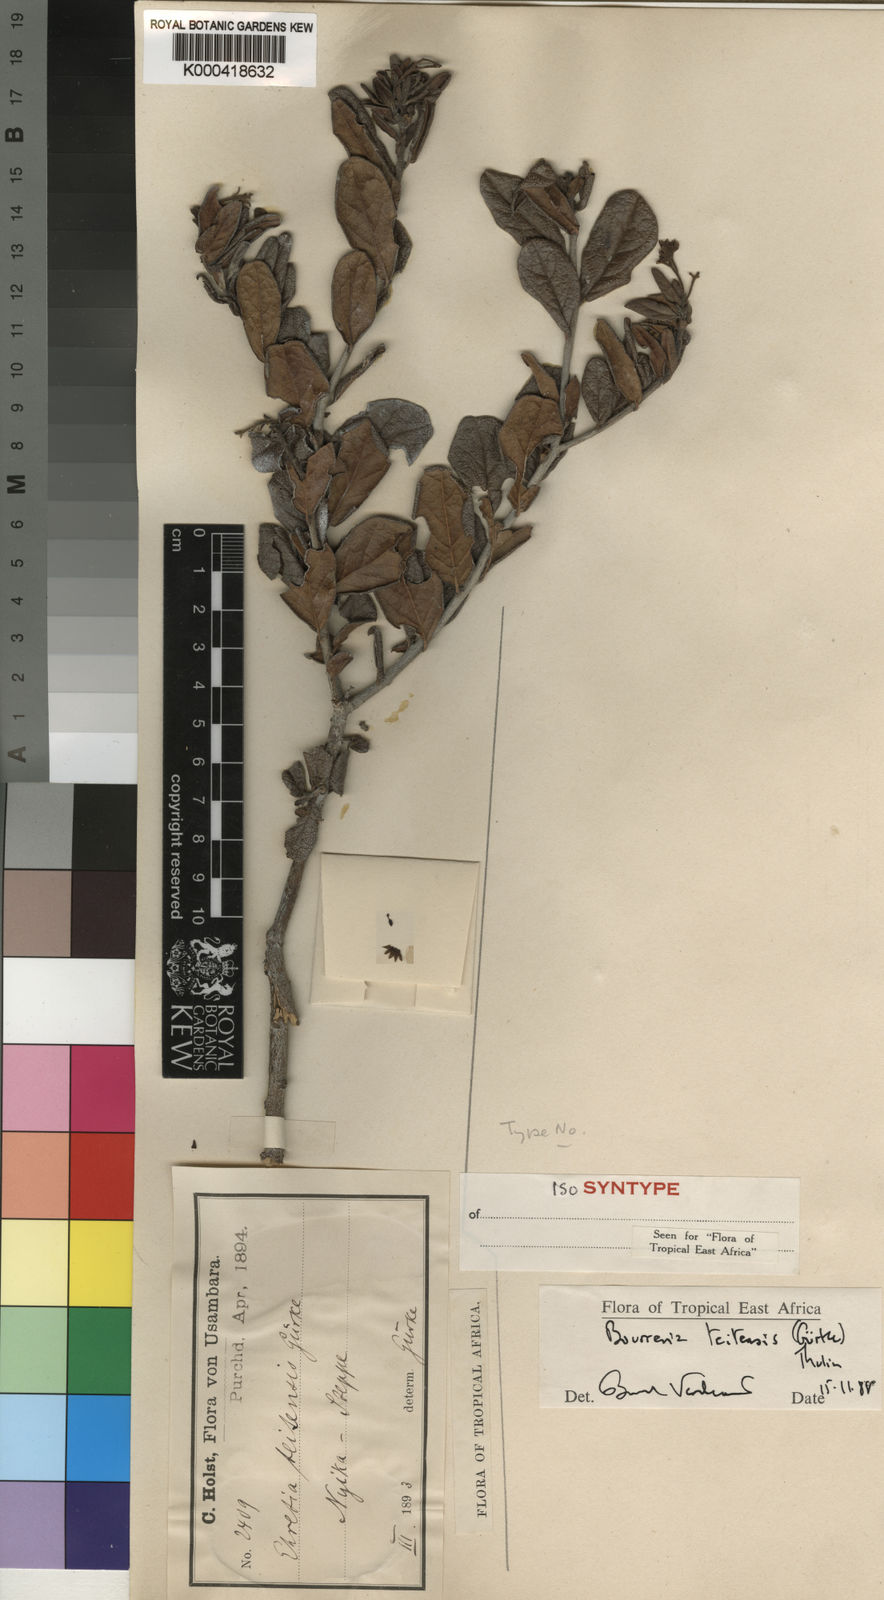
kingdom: Plantae
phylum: Tracheophyta
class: Magnoliopsida
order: Boraginales
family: Ehretiaceae
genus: Bourreria
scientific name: Bourreria
